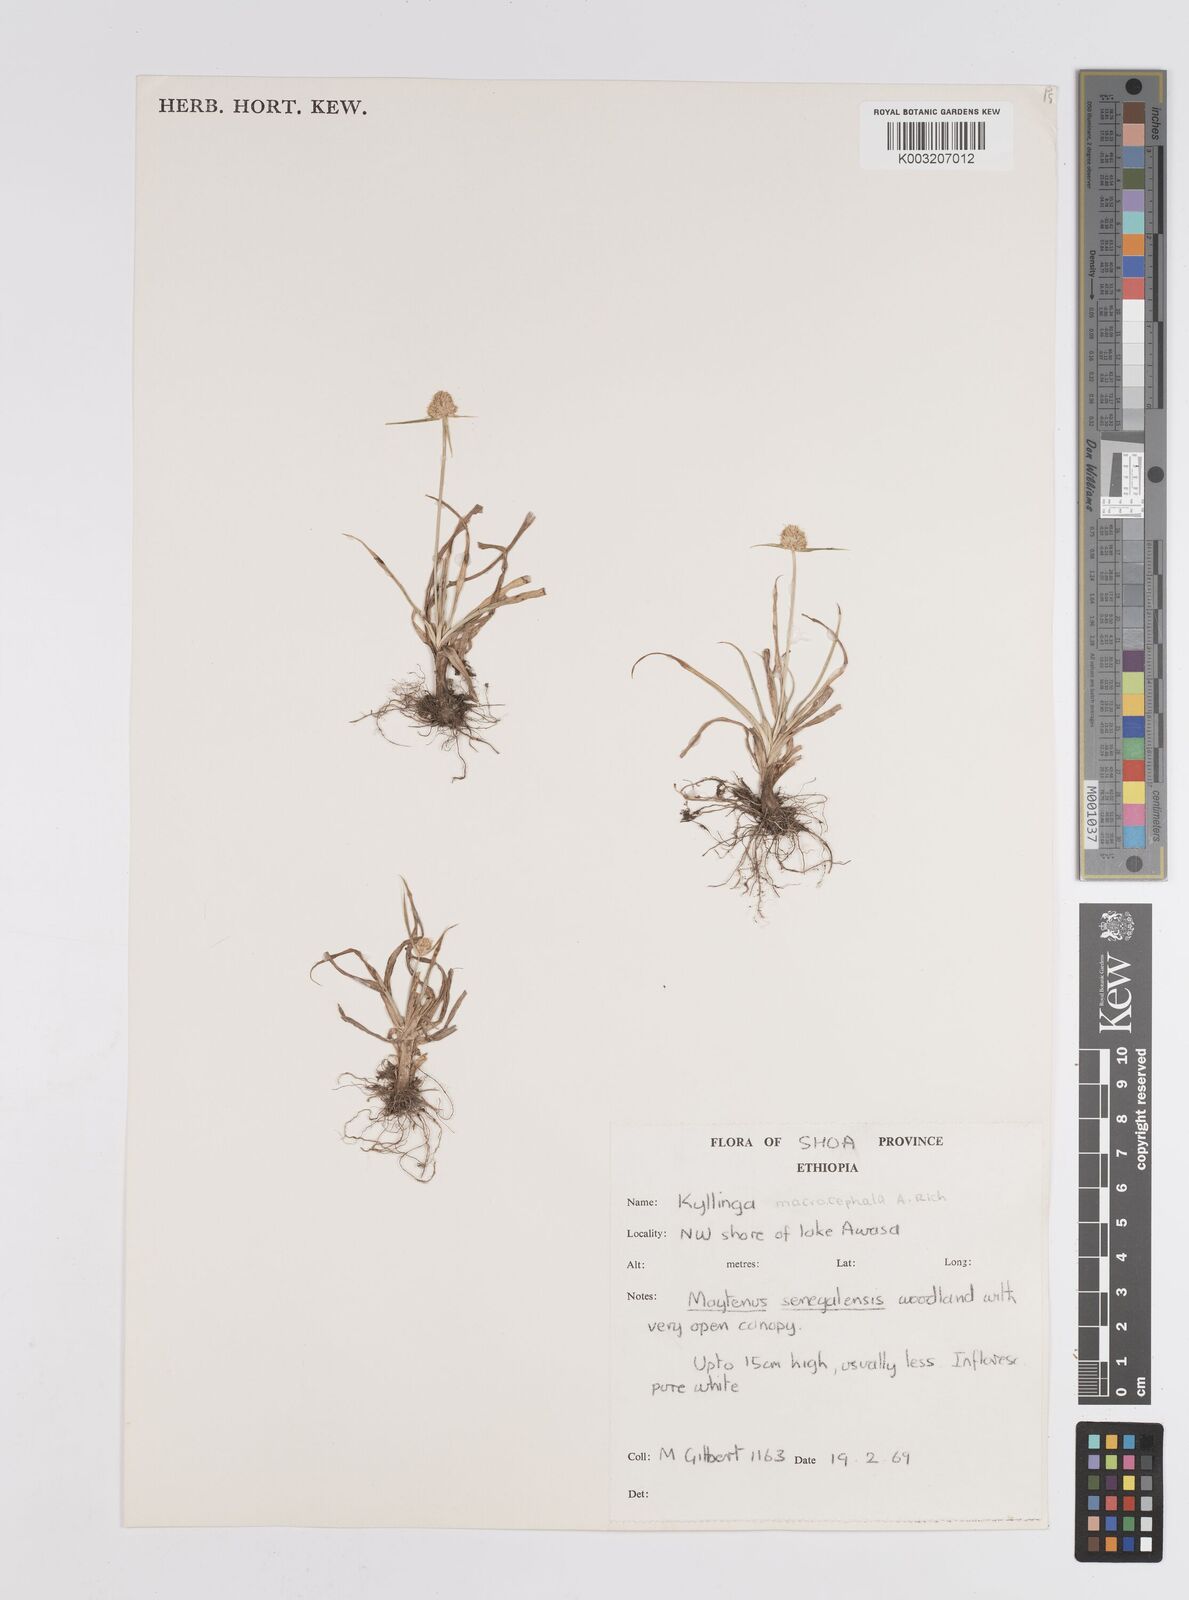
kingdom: Plantae
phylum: Tracheophyta
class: Liliopsida
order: Poales
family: Cyperaceae
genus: Cyperus
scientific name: Cyperus
